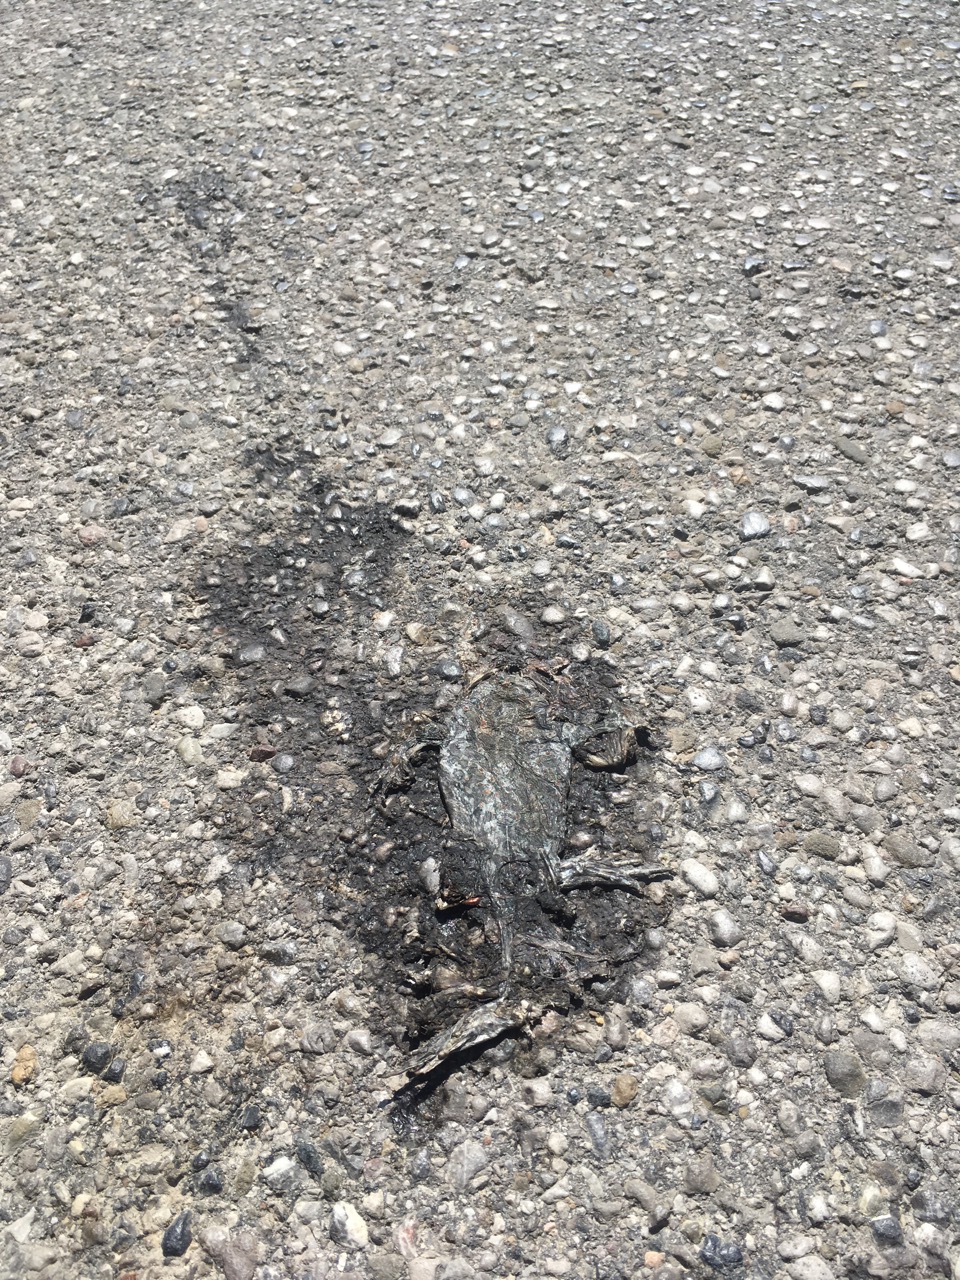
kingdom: Animalia
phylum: Chordata
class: Amphibia
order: Anura
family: Bufonidae
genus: Bufotes
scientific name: Bufotes viridis
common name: European green toad
